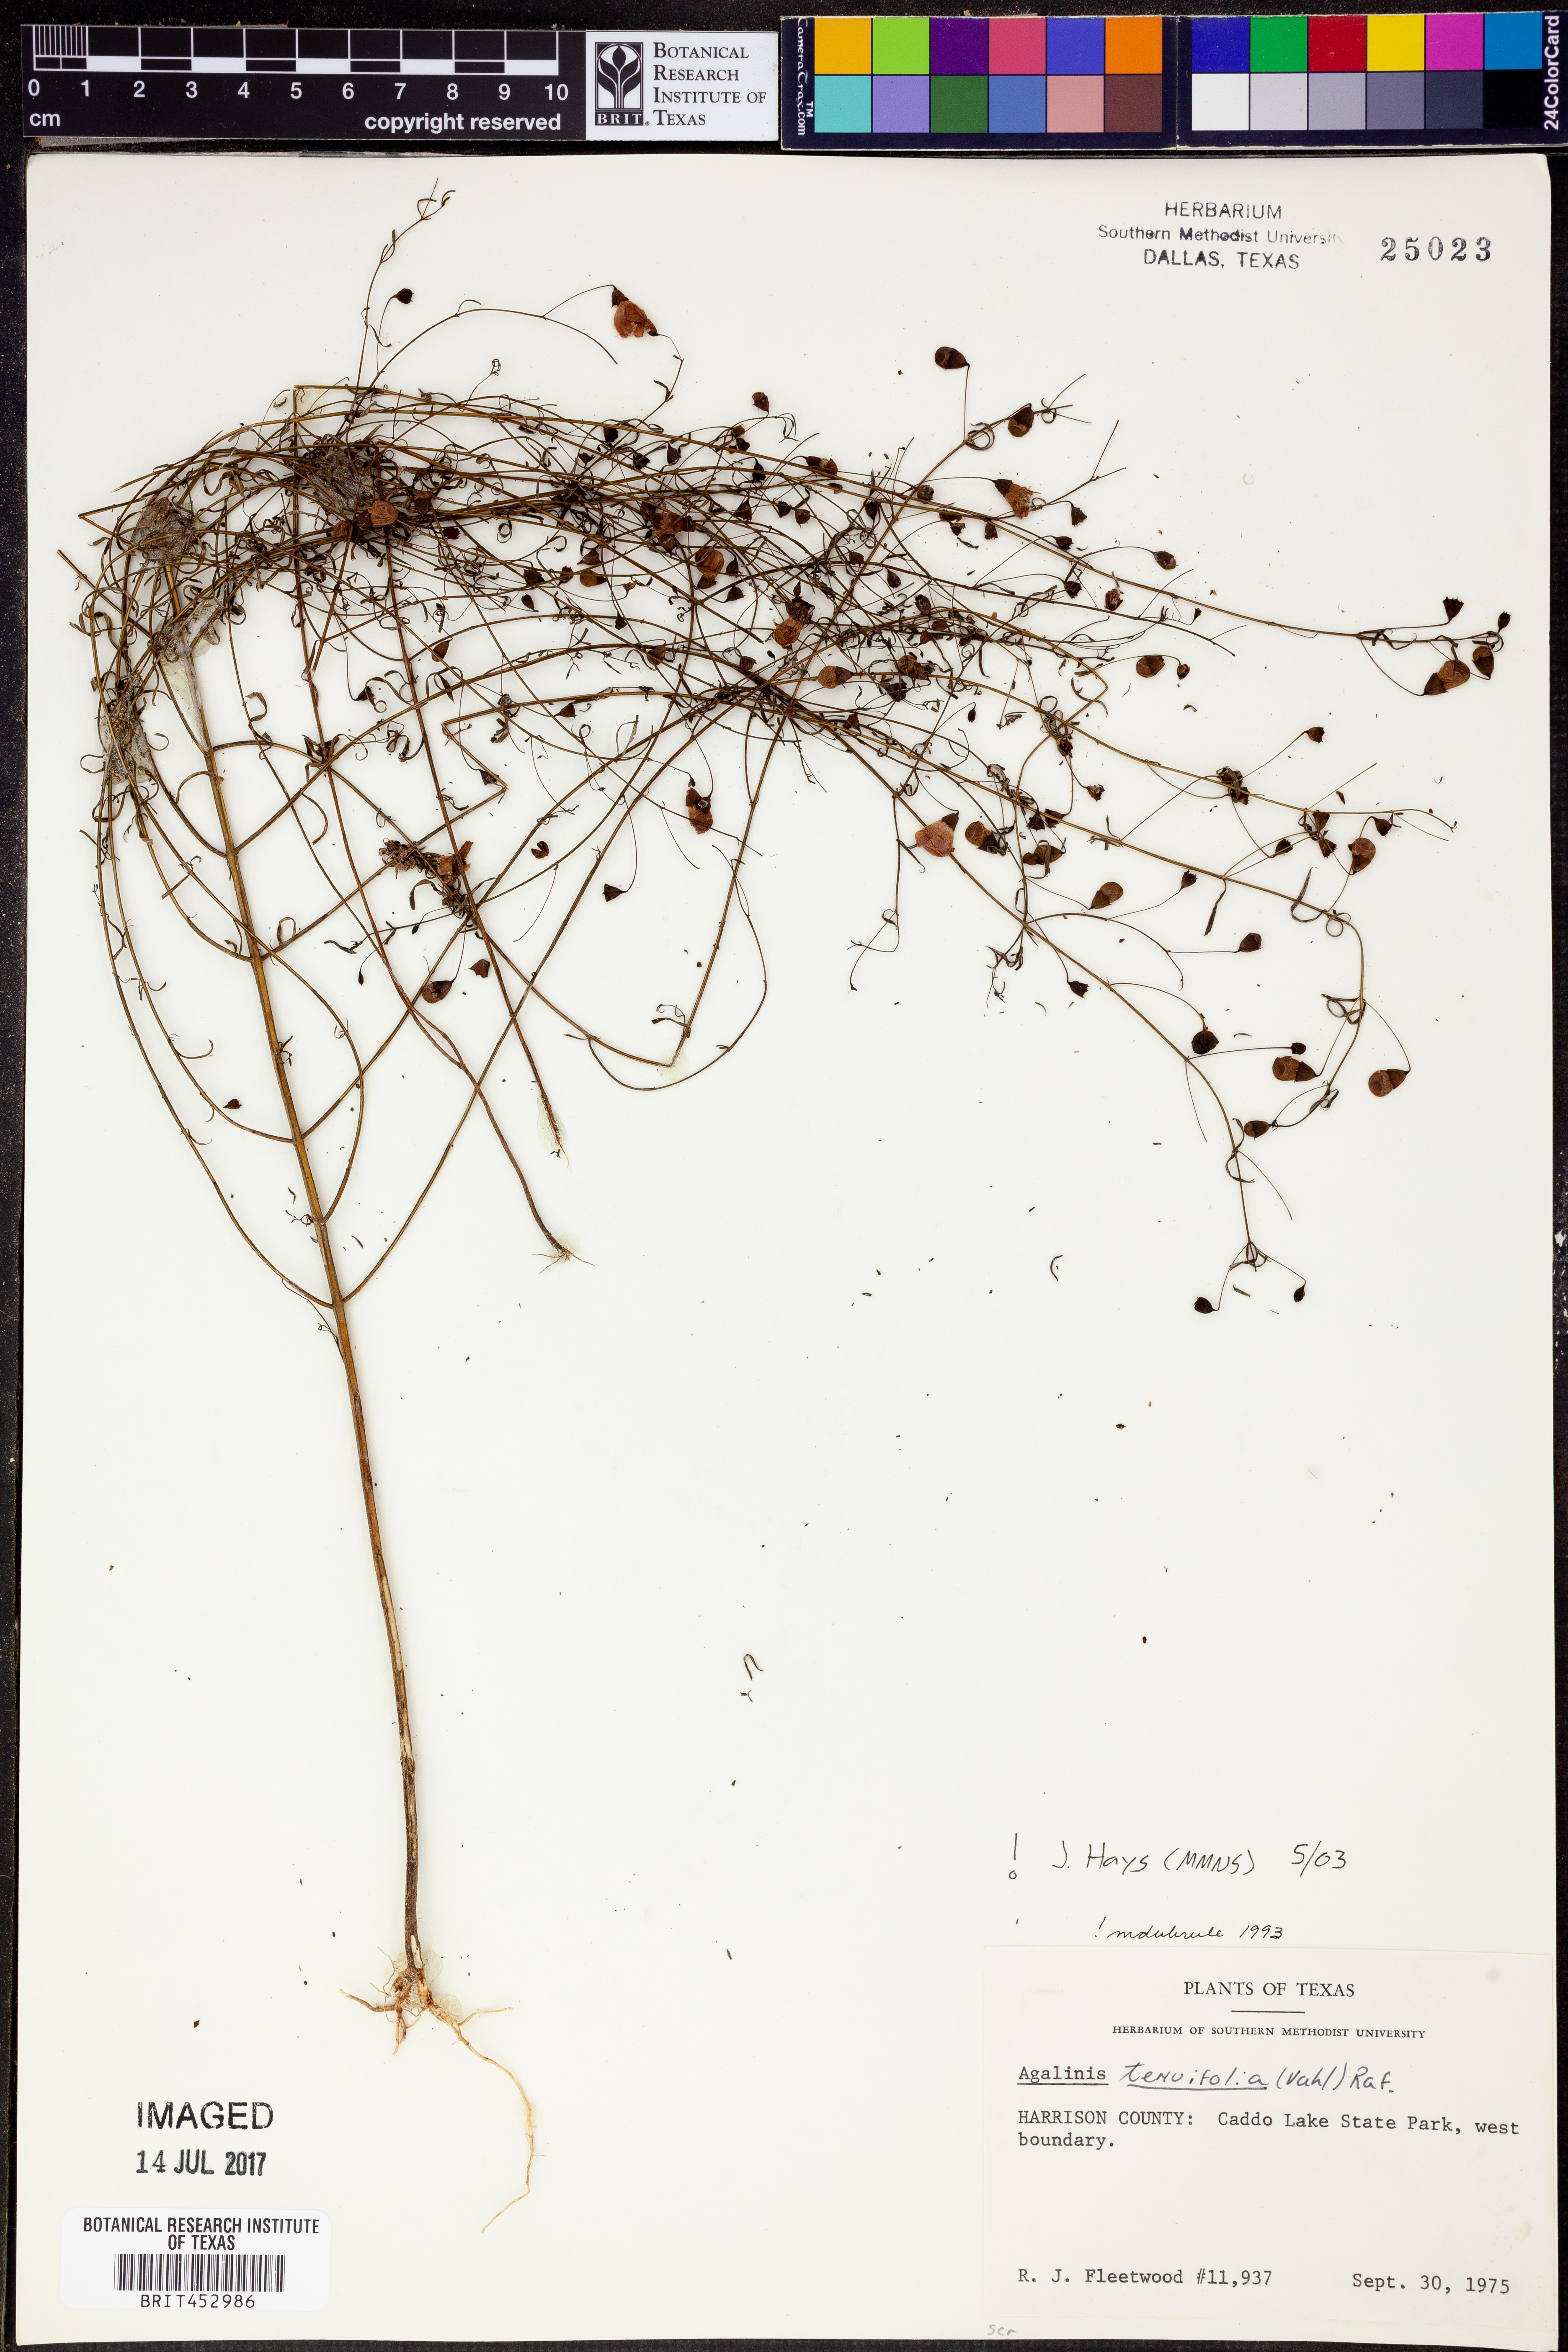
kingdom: Plantae
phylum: Tracheophyta
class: Magnoliopsida
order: Lamiales
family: Orobanchaceae
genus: Agalinis
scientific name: Agalinis tenuifolia
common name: Slender agalinis
